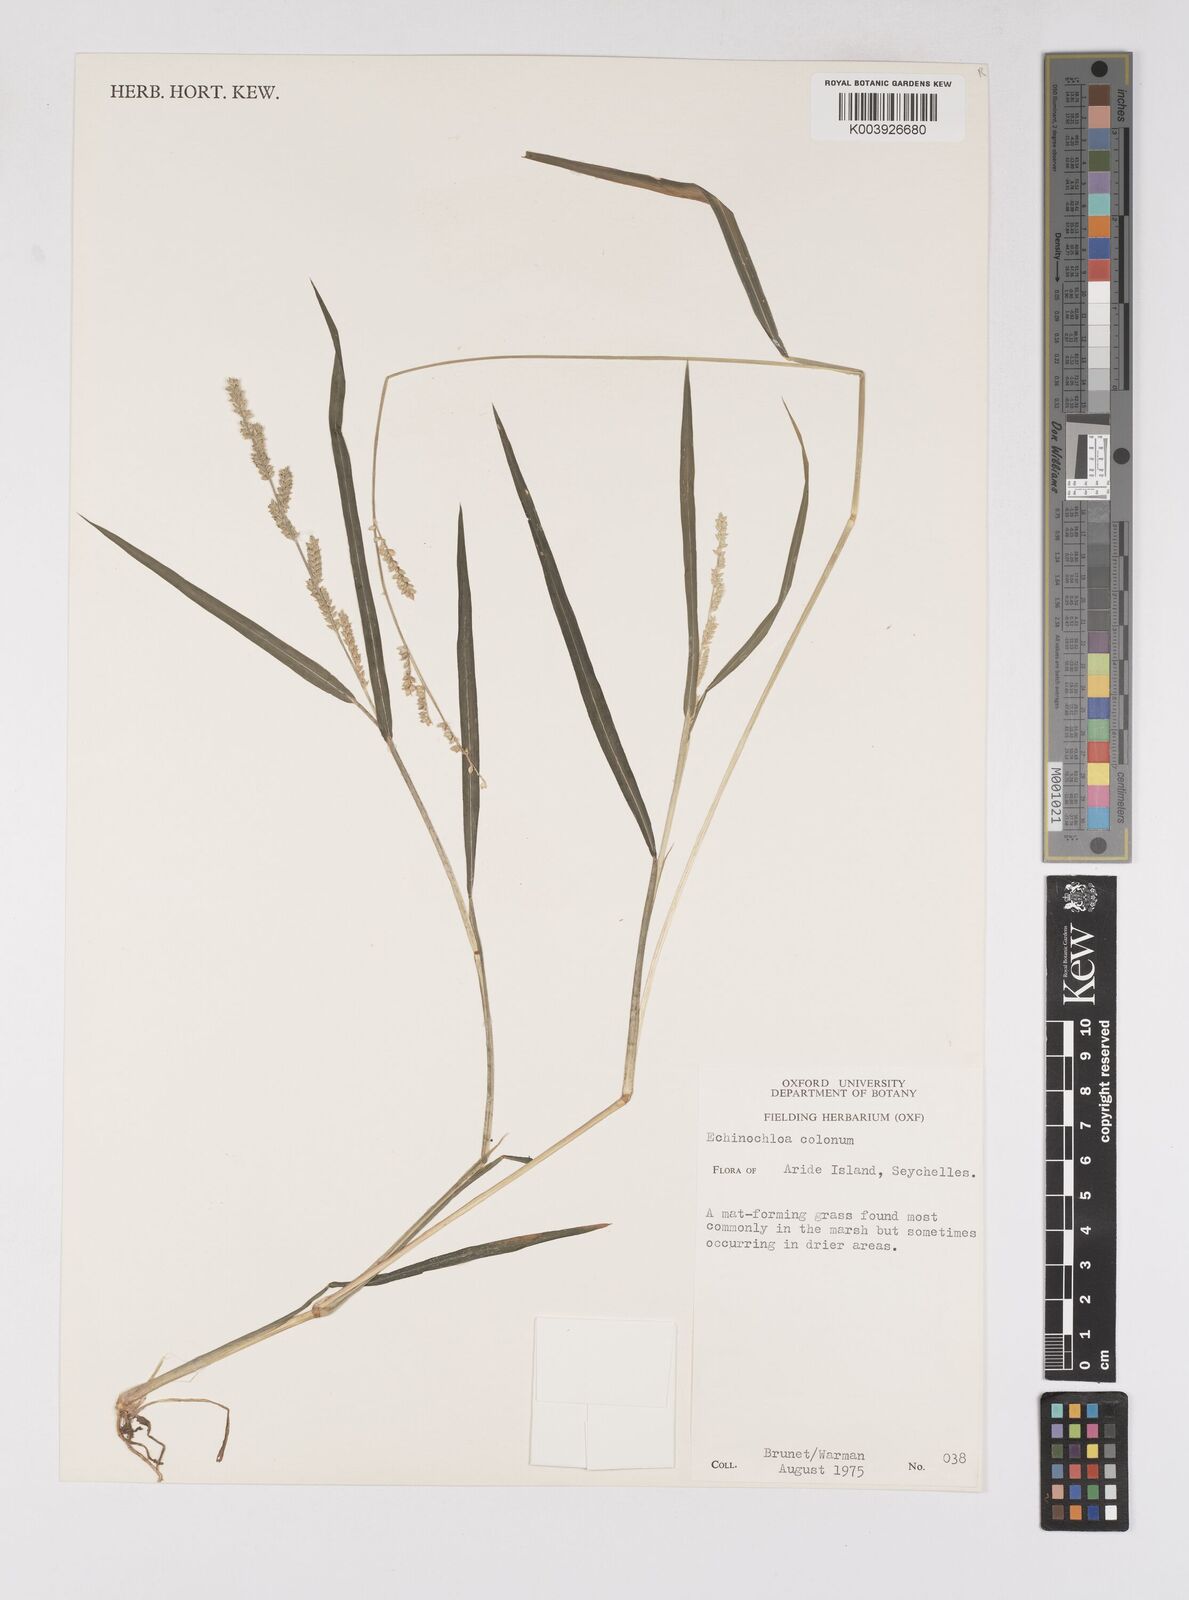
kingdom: Plantae
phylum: Tracheophyta
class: Liliopsida
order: Poales
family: Poaceae
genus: Echinochloa
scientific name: Echinochloa colonum
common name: Jungle rice
